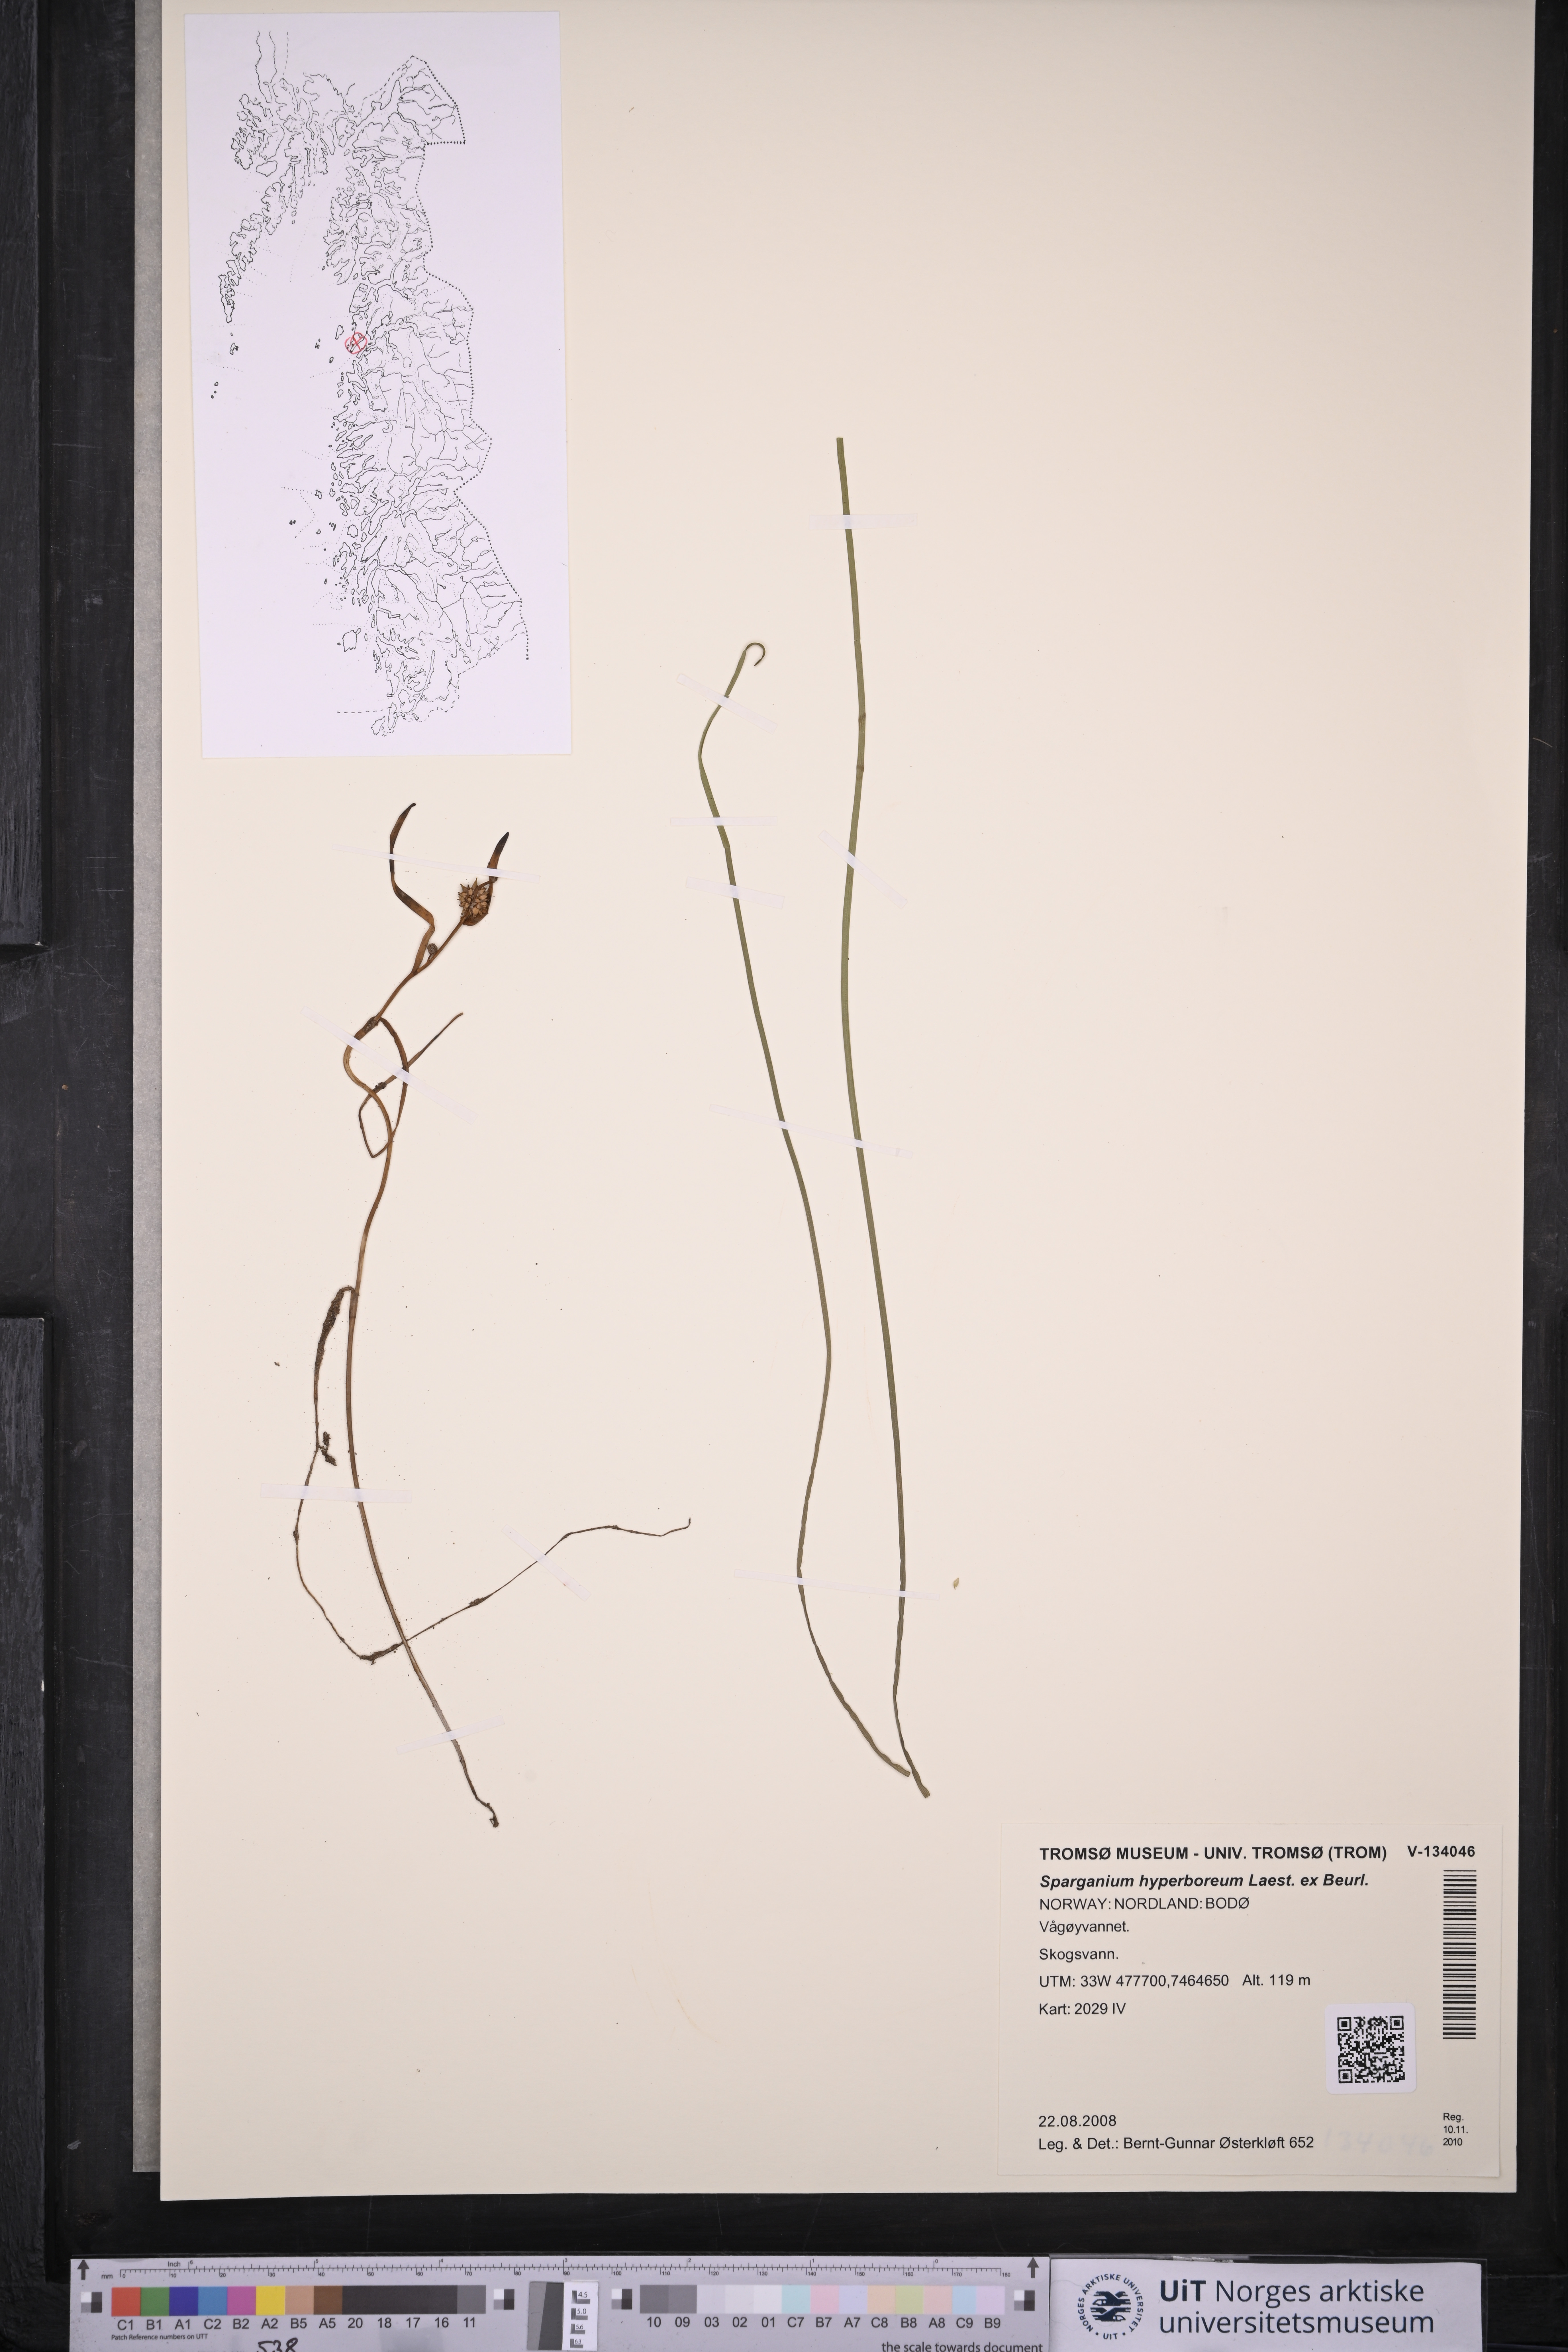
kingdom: Plantae
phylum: Tracheophyta
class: Liliopsida
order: Poales
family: Typhaceae
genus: Sparganium
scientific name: Sparganium hyperboreum
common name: Arctic burreed
